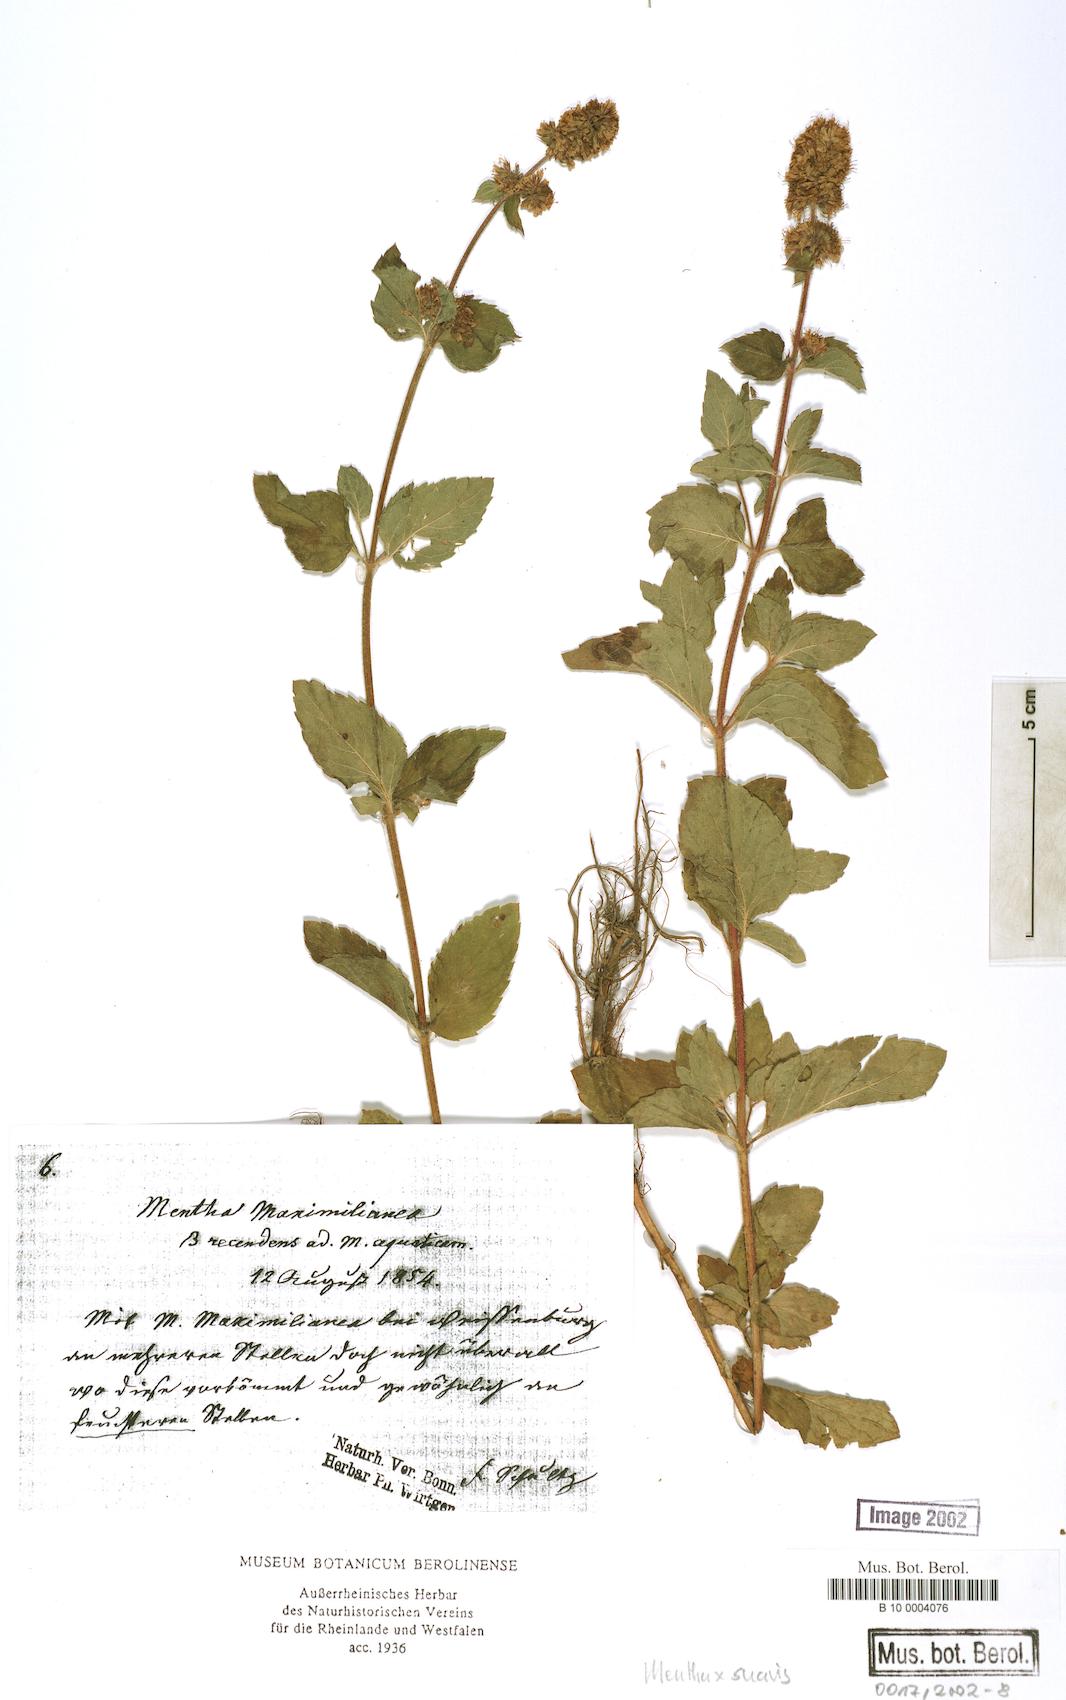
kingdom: Plantae
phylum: Tracheophyta
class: Magnoliopsida
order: Lamiales
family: Lamiaceae
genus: Mentha
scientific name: Mentha suavis
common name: Sweet mint
